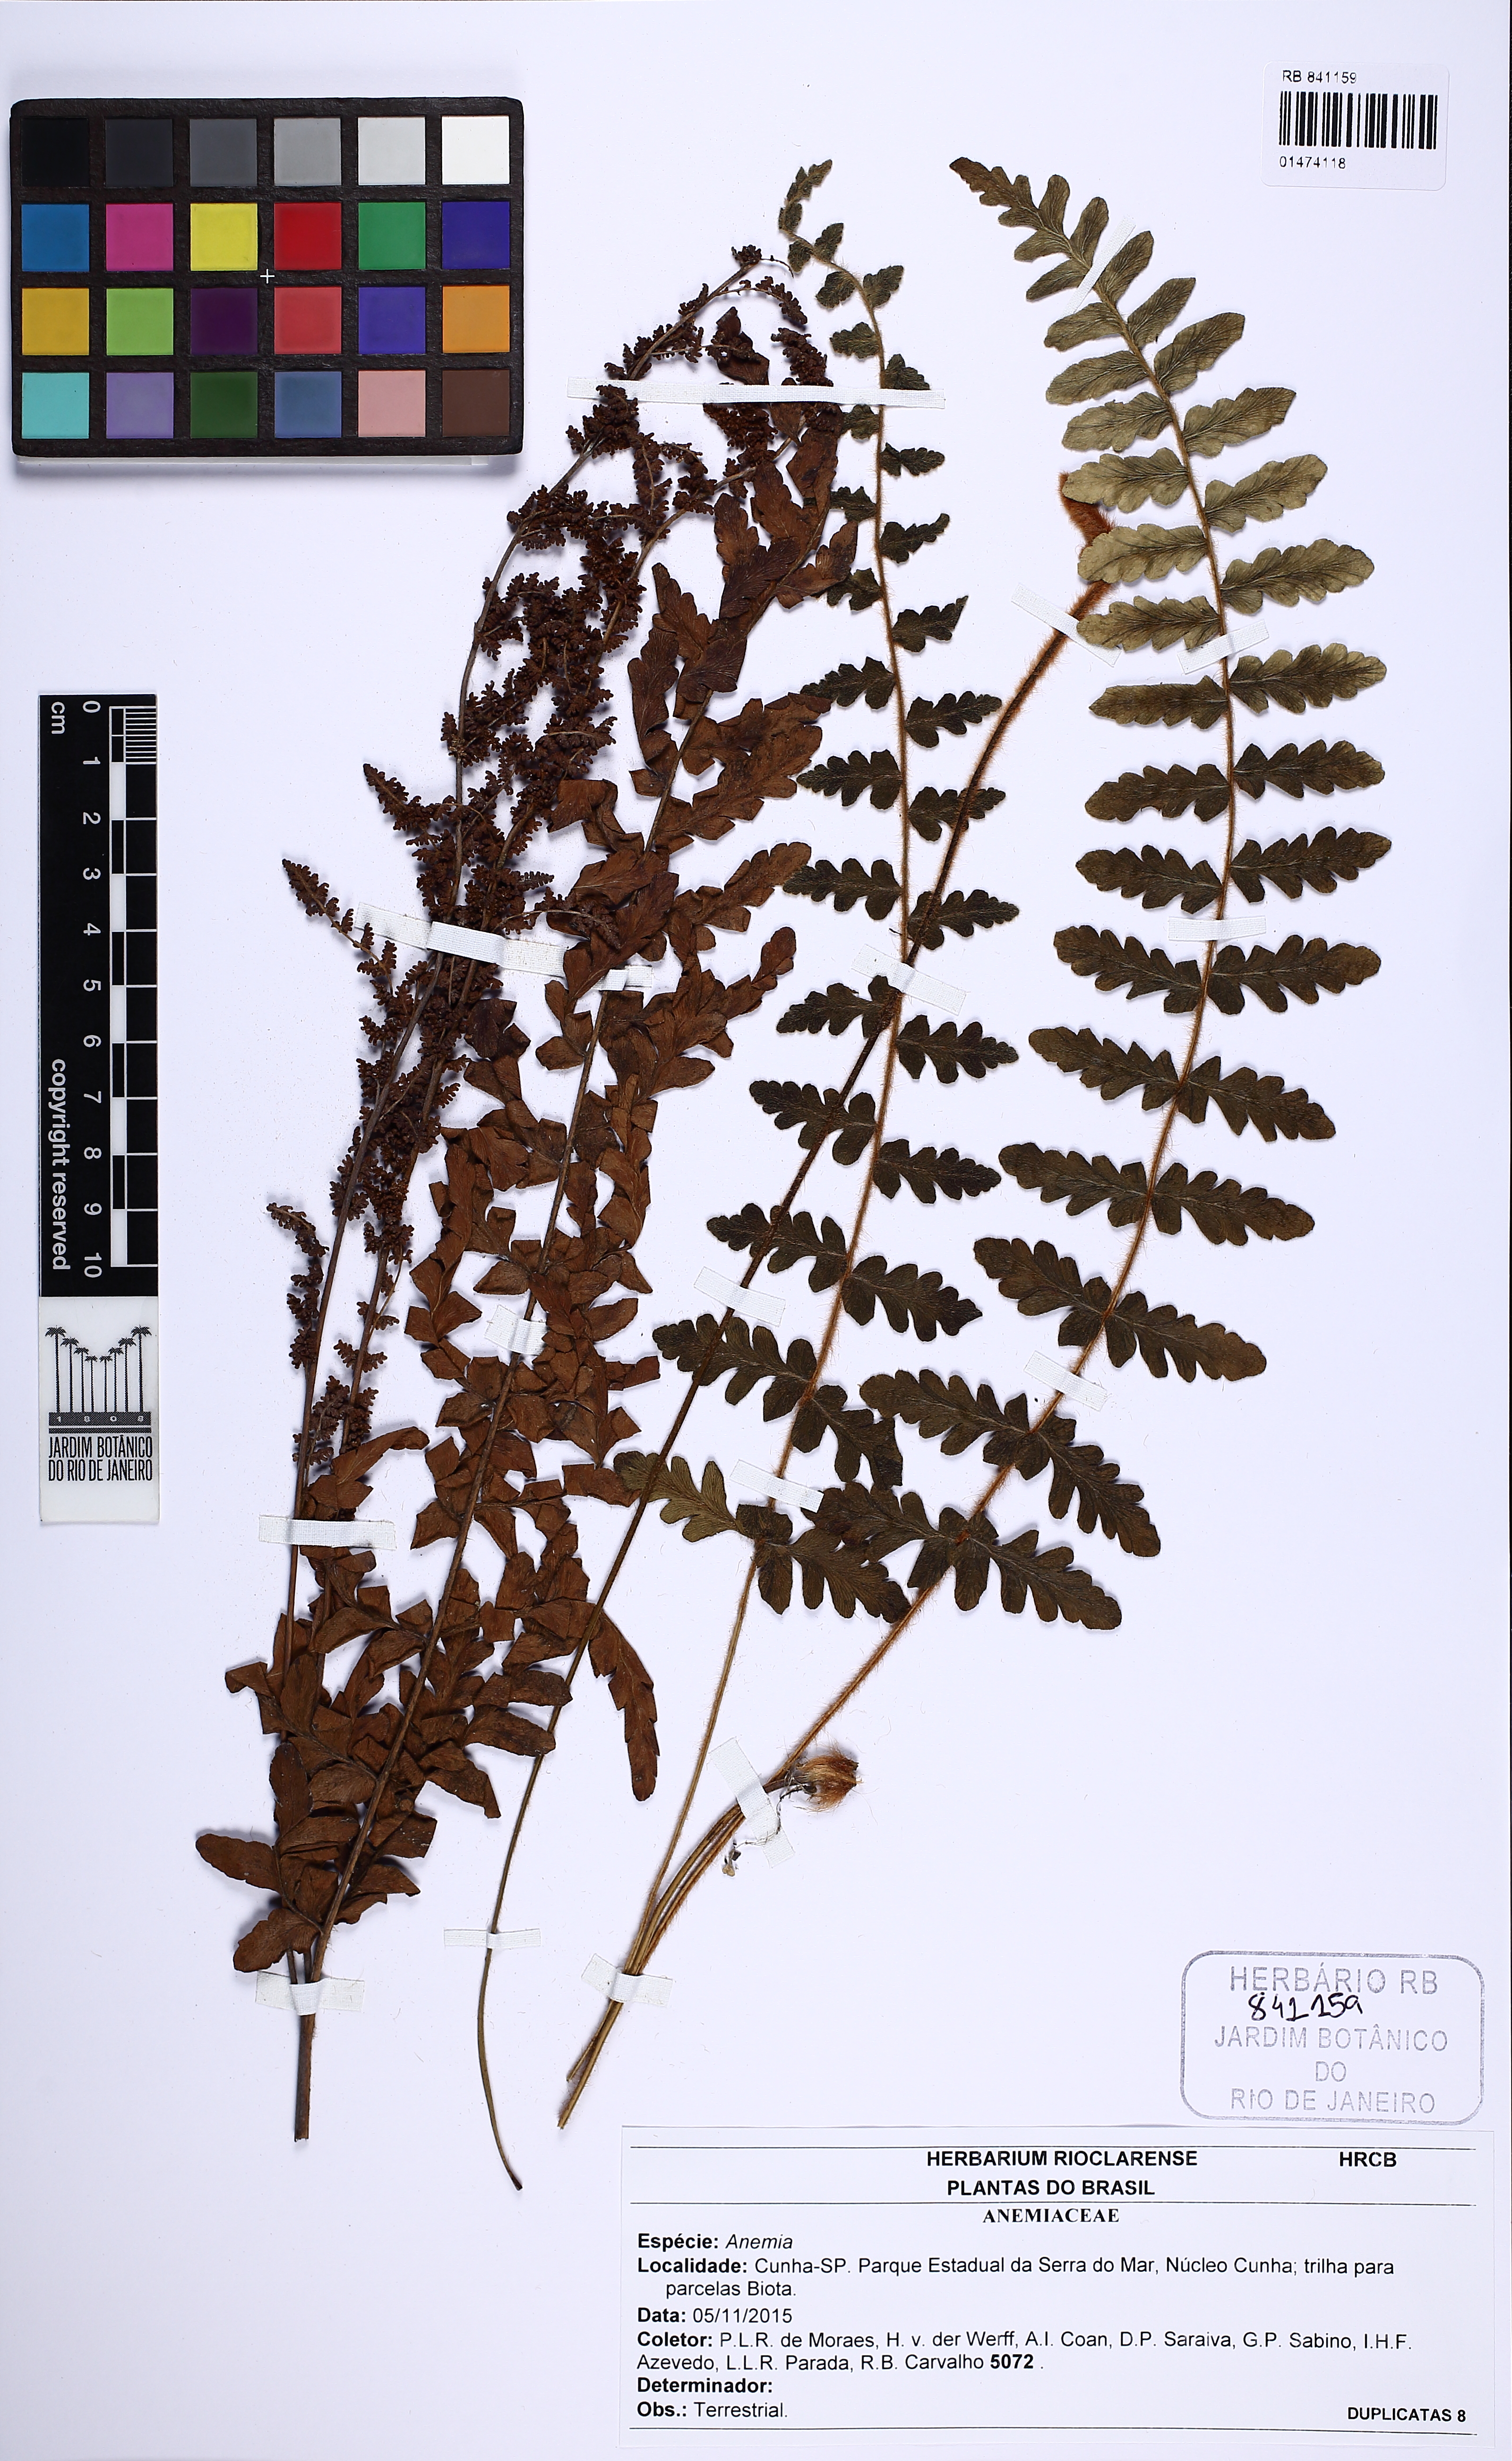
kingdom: Plantae
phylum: Tracheophyta
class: Polypodiopsida
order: Schizaeales
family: Anemiaceae
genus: Anemia
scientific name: Anemia villosa
